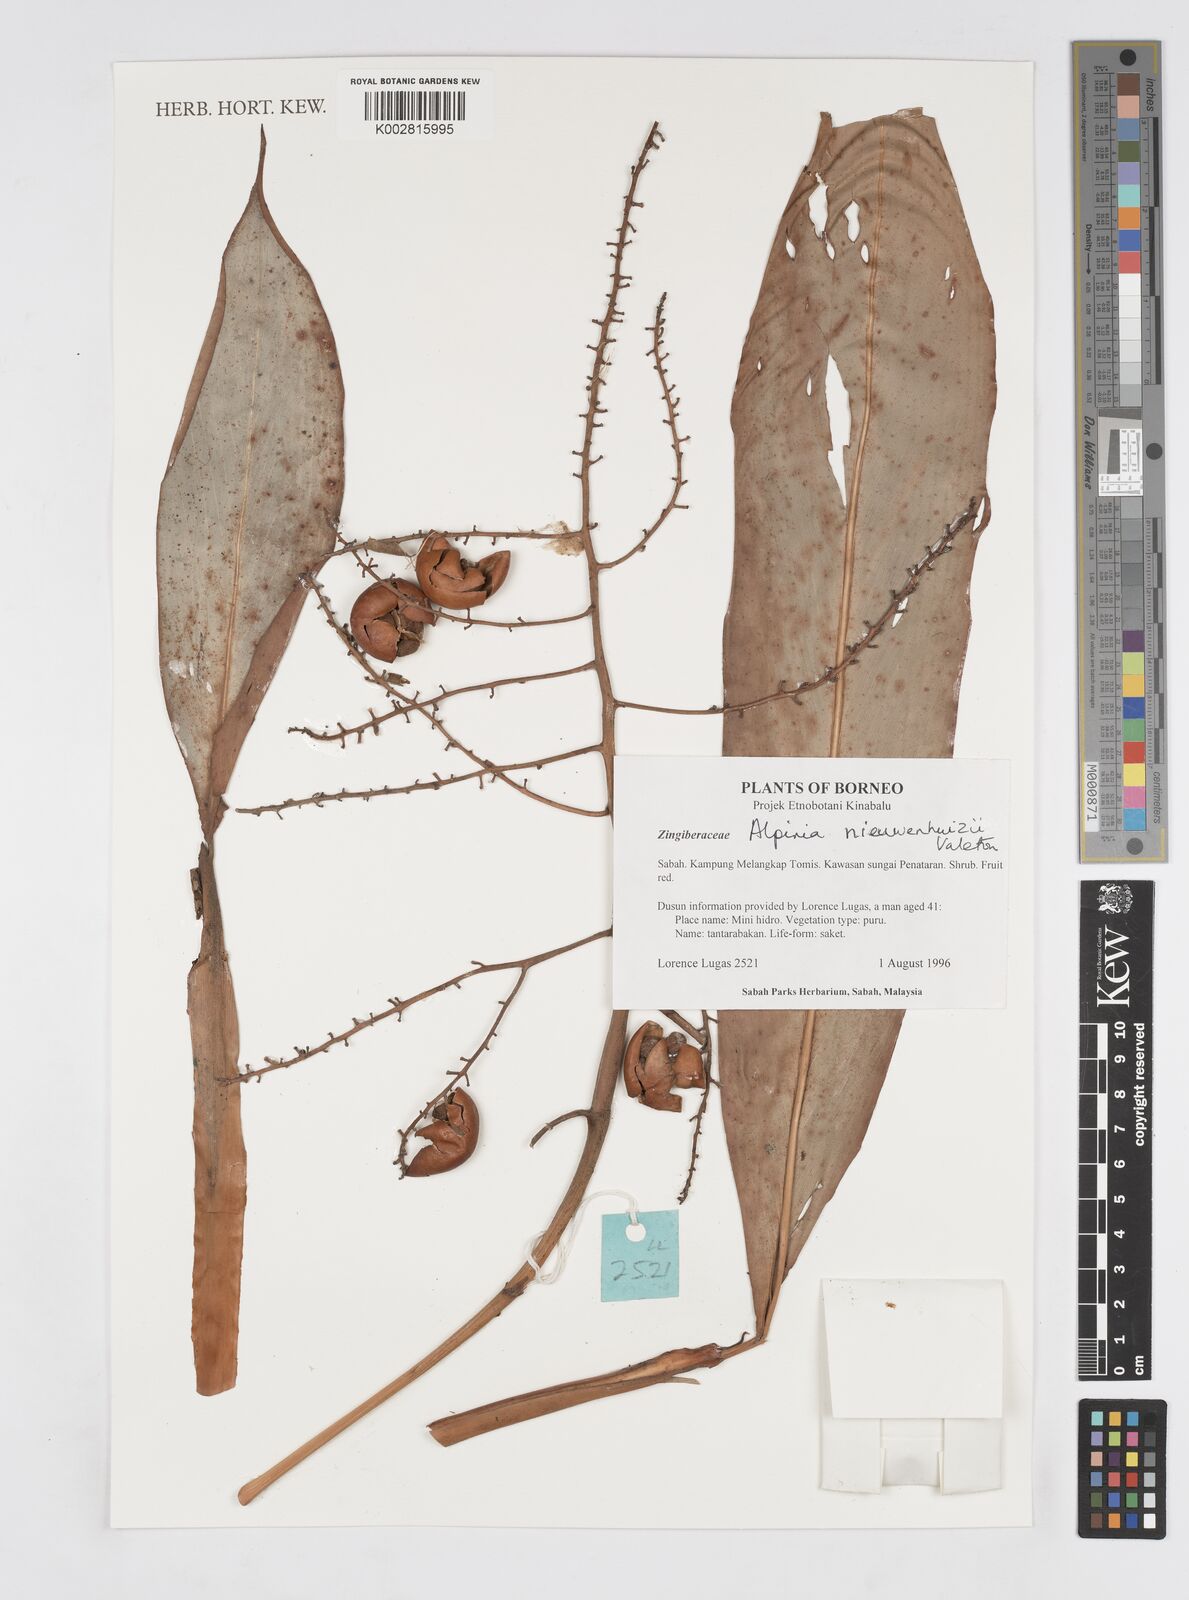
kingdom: Plantae
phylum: Tracheophyta
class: Liliopsida
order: Zingiberales
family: Zingiberaceae
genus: Alpinia
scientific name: Alpinia nieuwenhuizii
